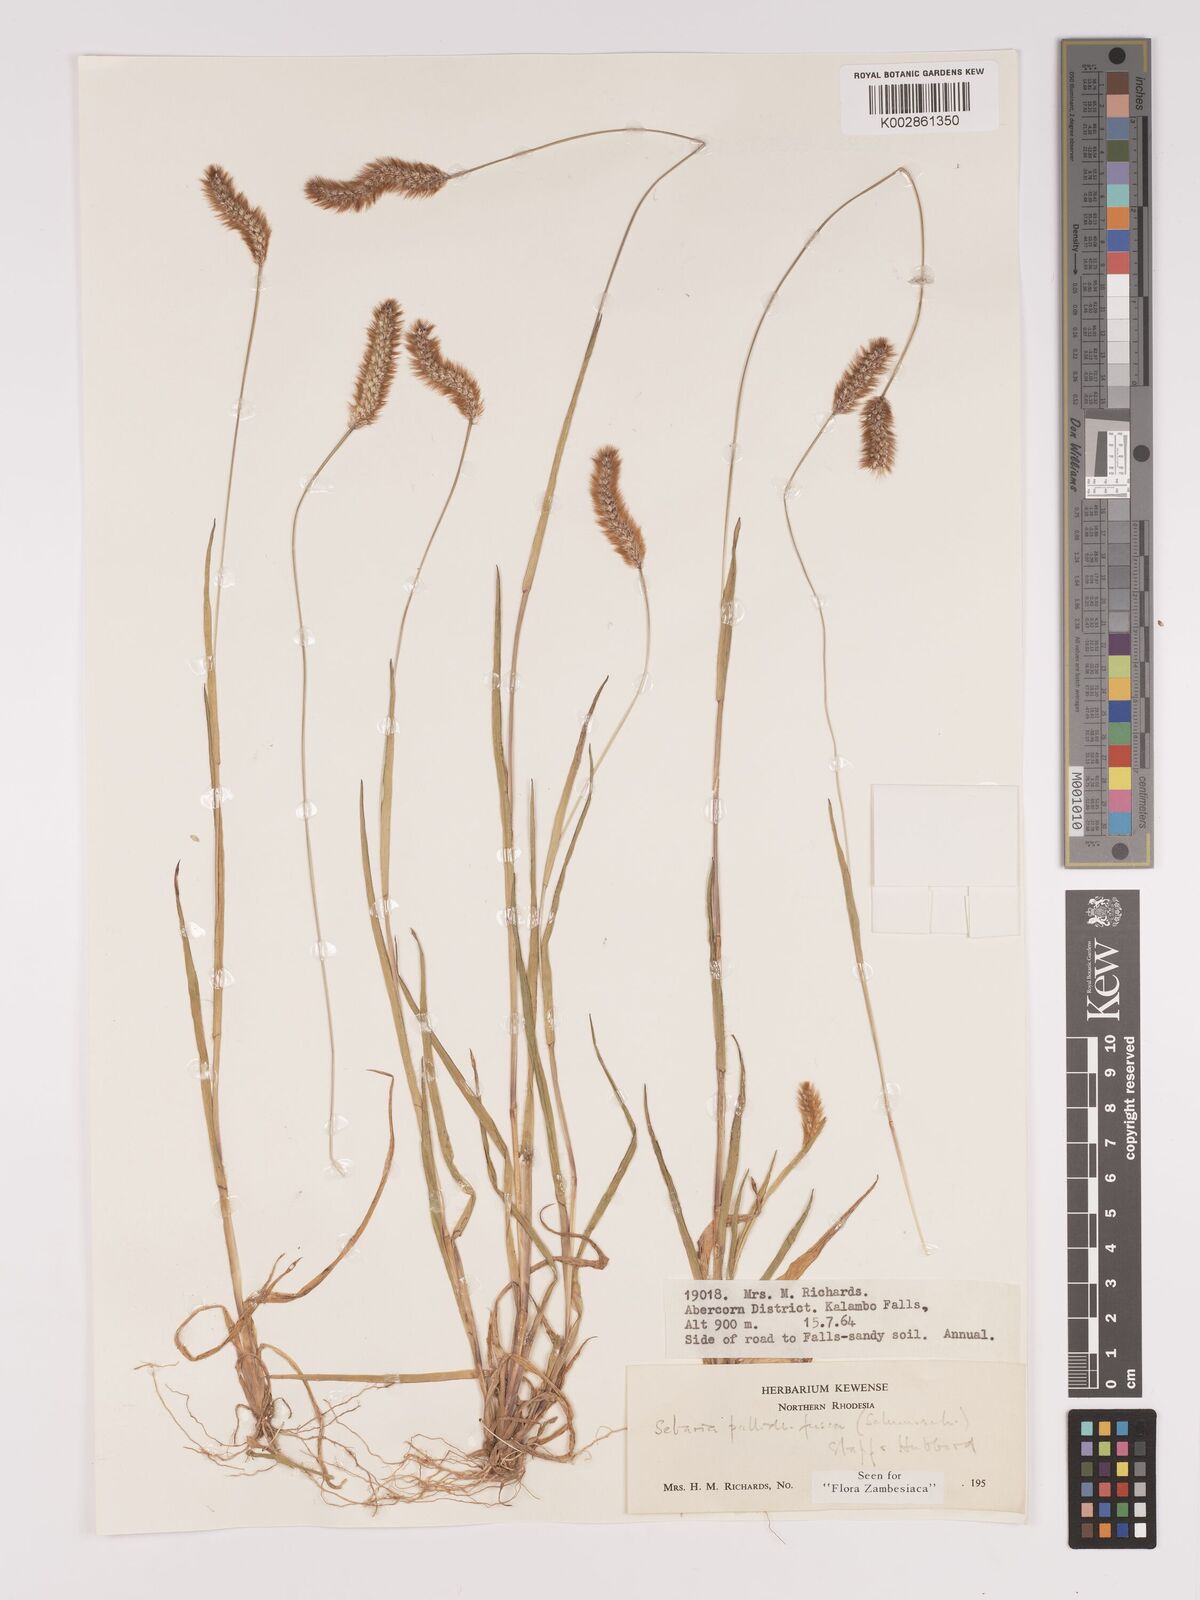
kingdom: Plantae
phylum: Tracheophyta
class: Liliopsida
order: Poales
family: Poaceae
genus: Setaria
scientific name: Setaria pumila
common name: Yellow bristle-grass
